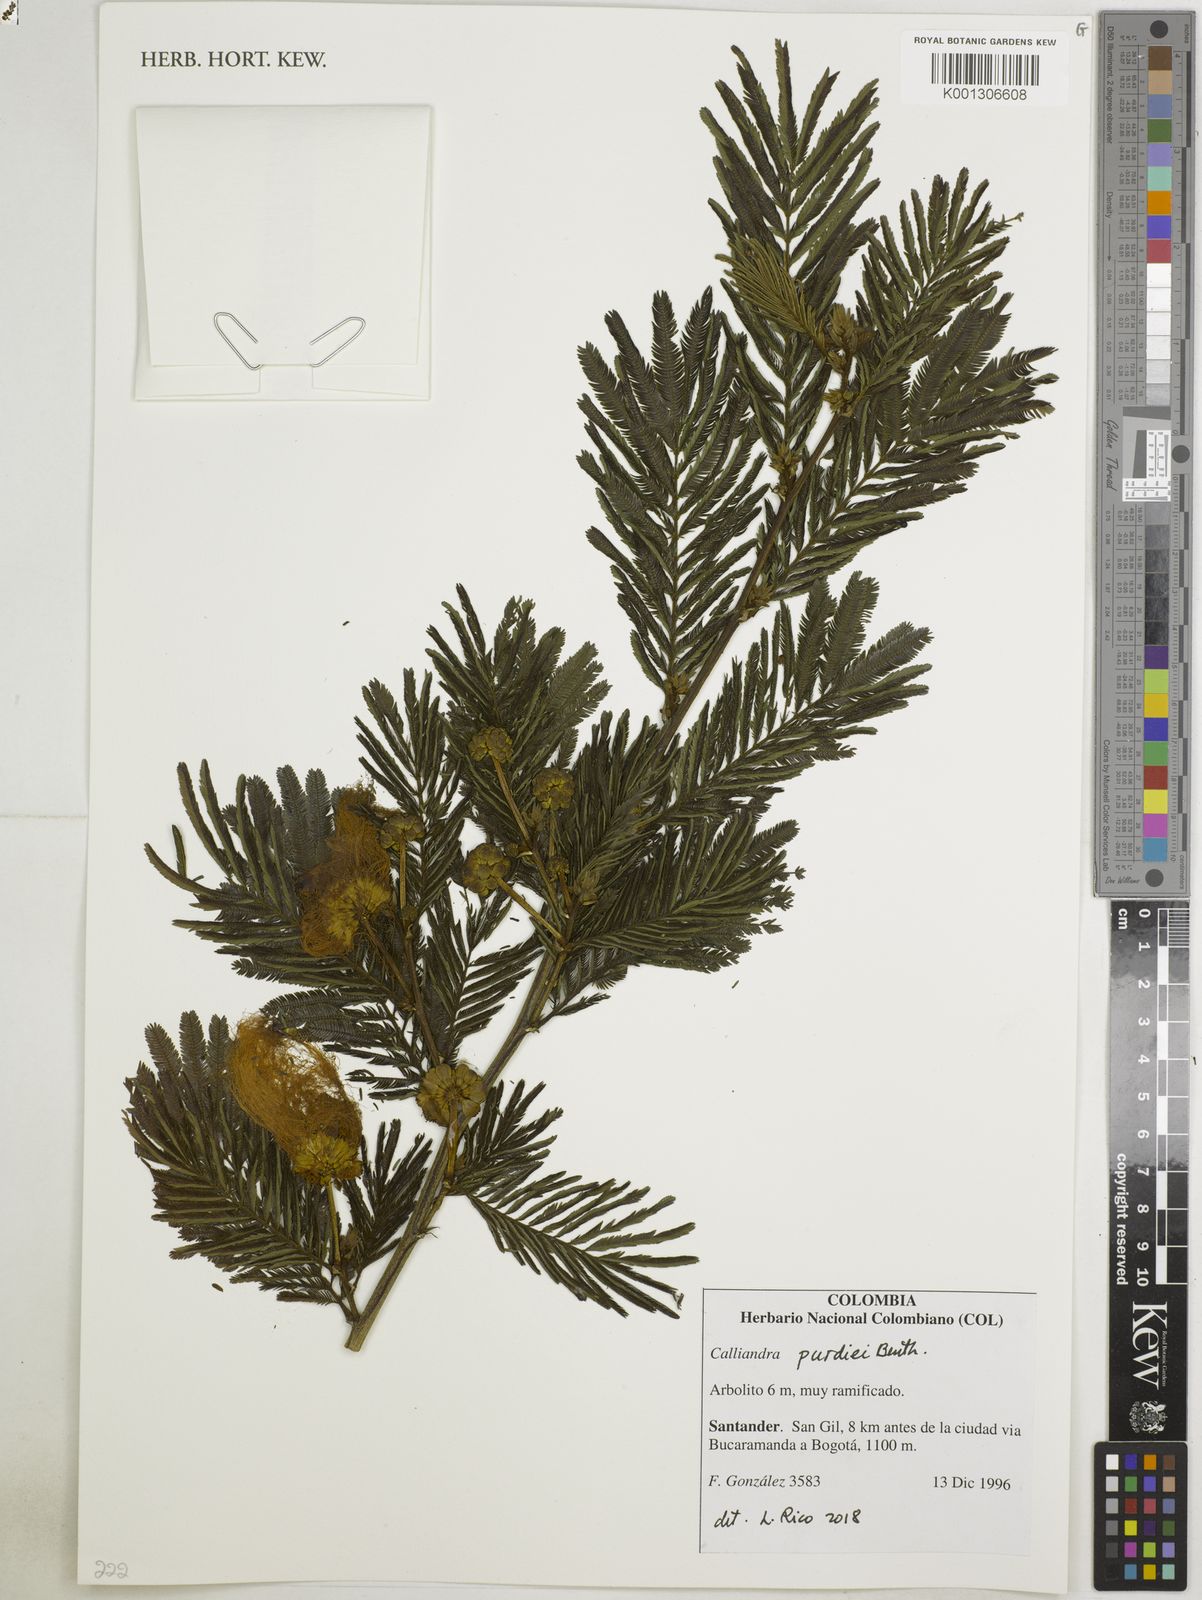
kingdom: Plantae
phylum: Tracheophyta
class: Magnoliopsida
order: Fabales
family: Fabaceae
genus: Calliandra
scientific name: Calliandra purdiei
